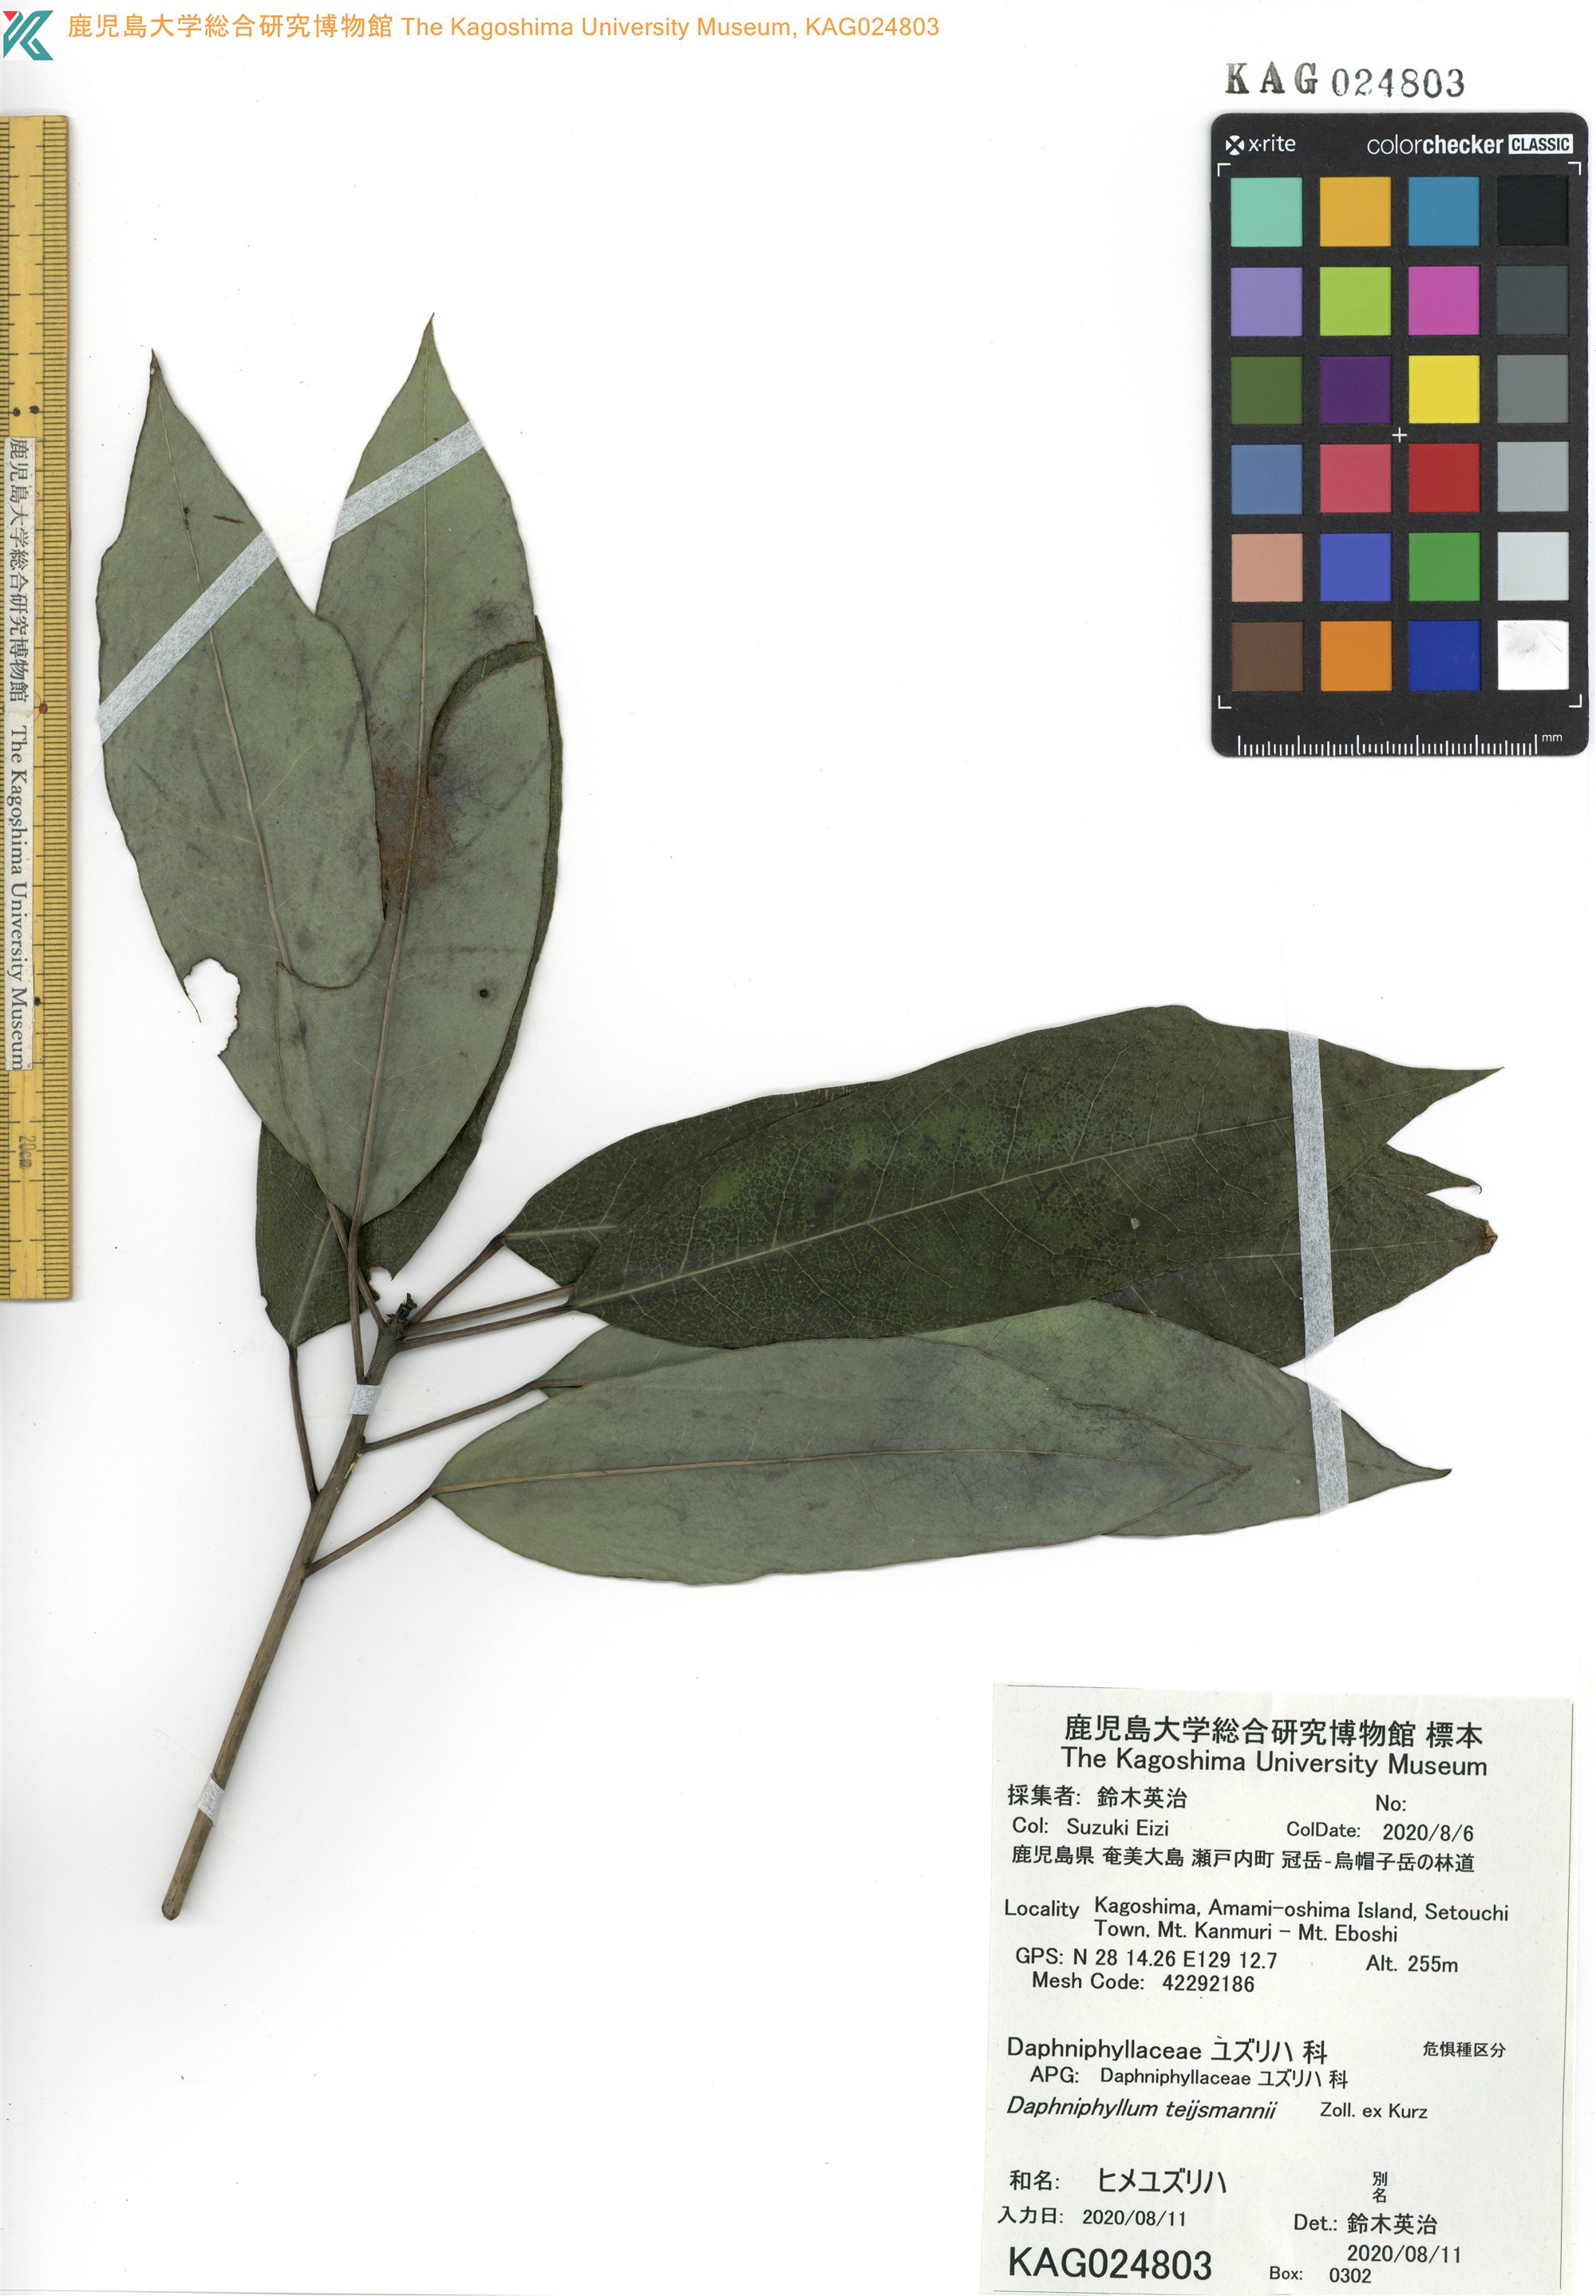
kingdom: Plantae
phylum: Tracheophyta
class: Magnoliopsida
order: Saxifragales
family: Daphniphyllaceae
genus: Daphniphyllum
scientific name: Daphniphyllum teijsmannii
